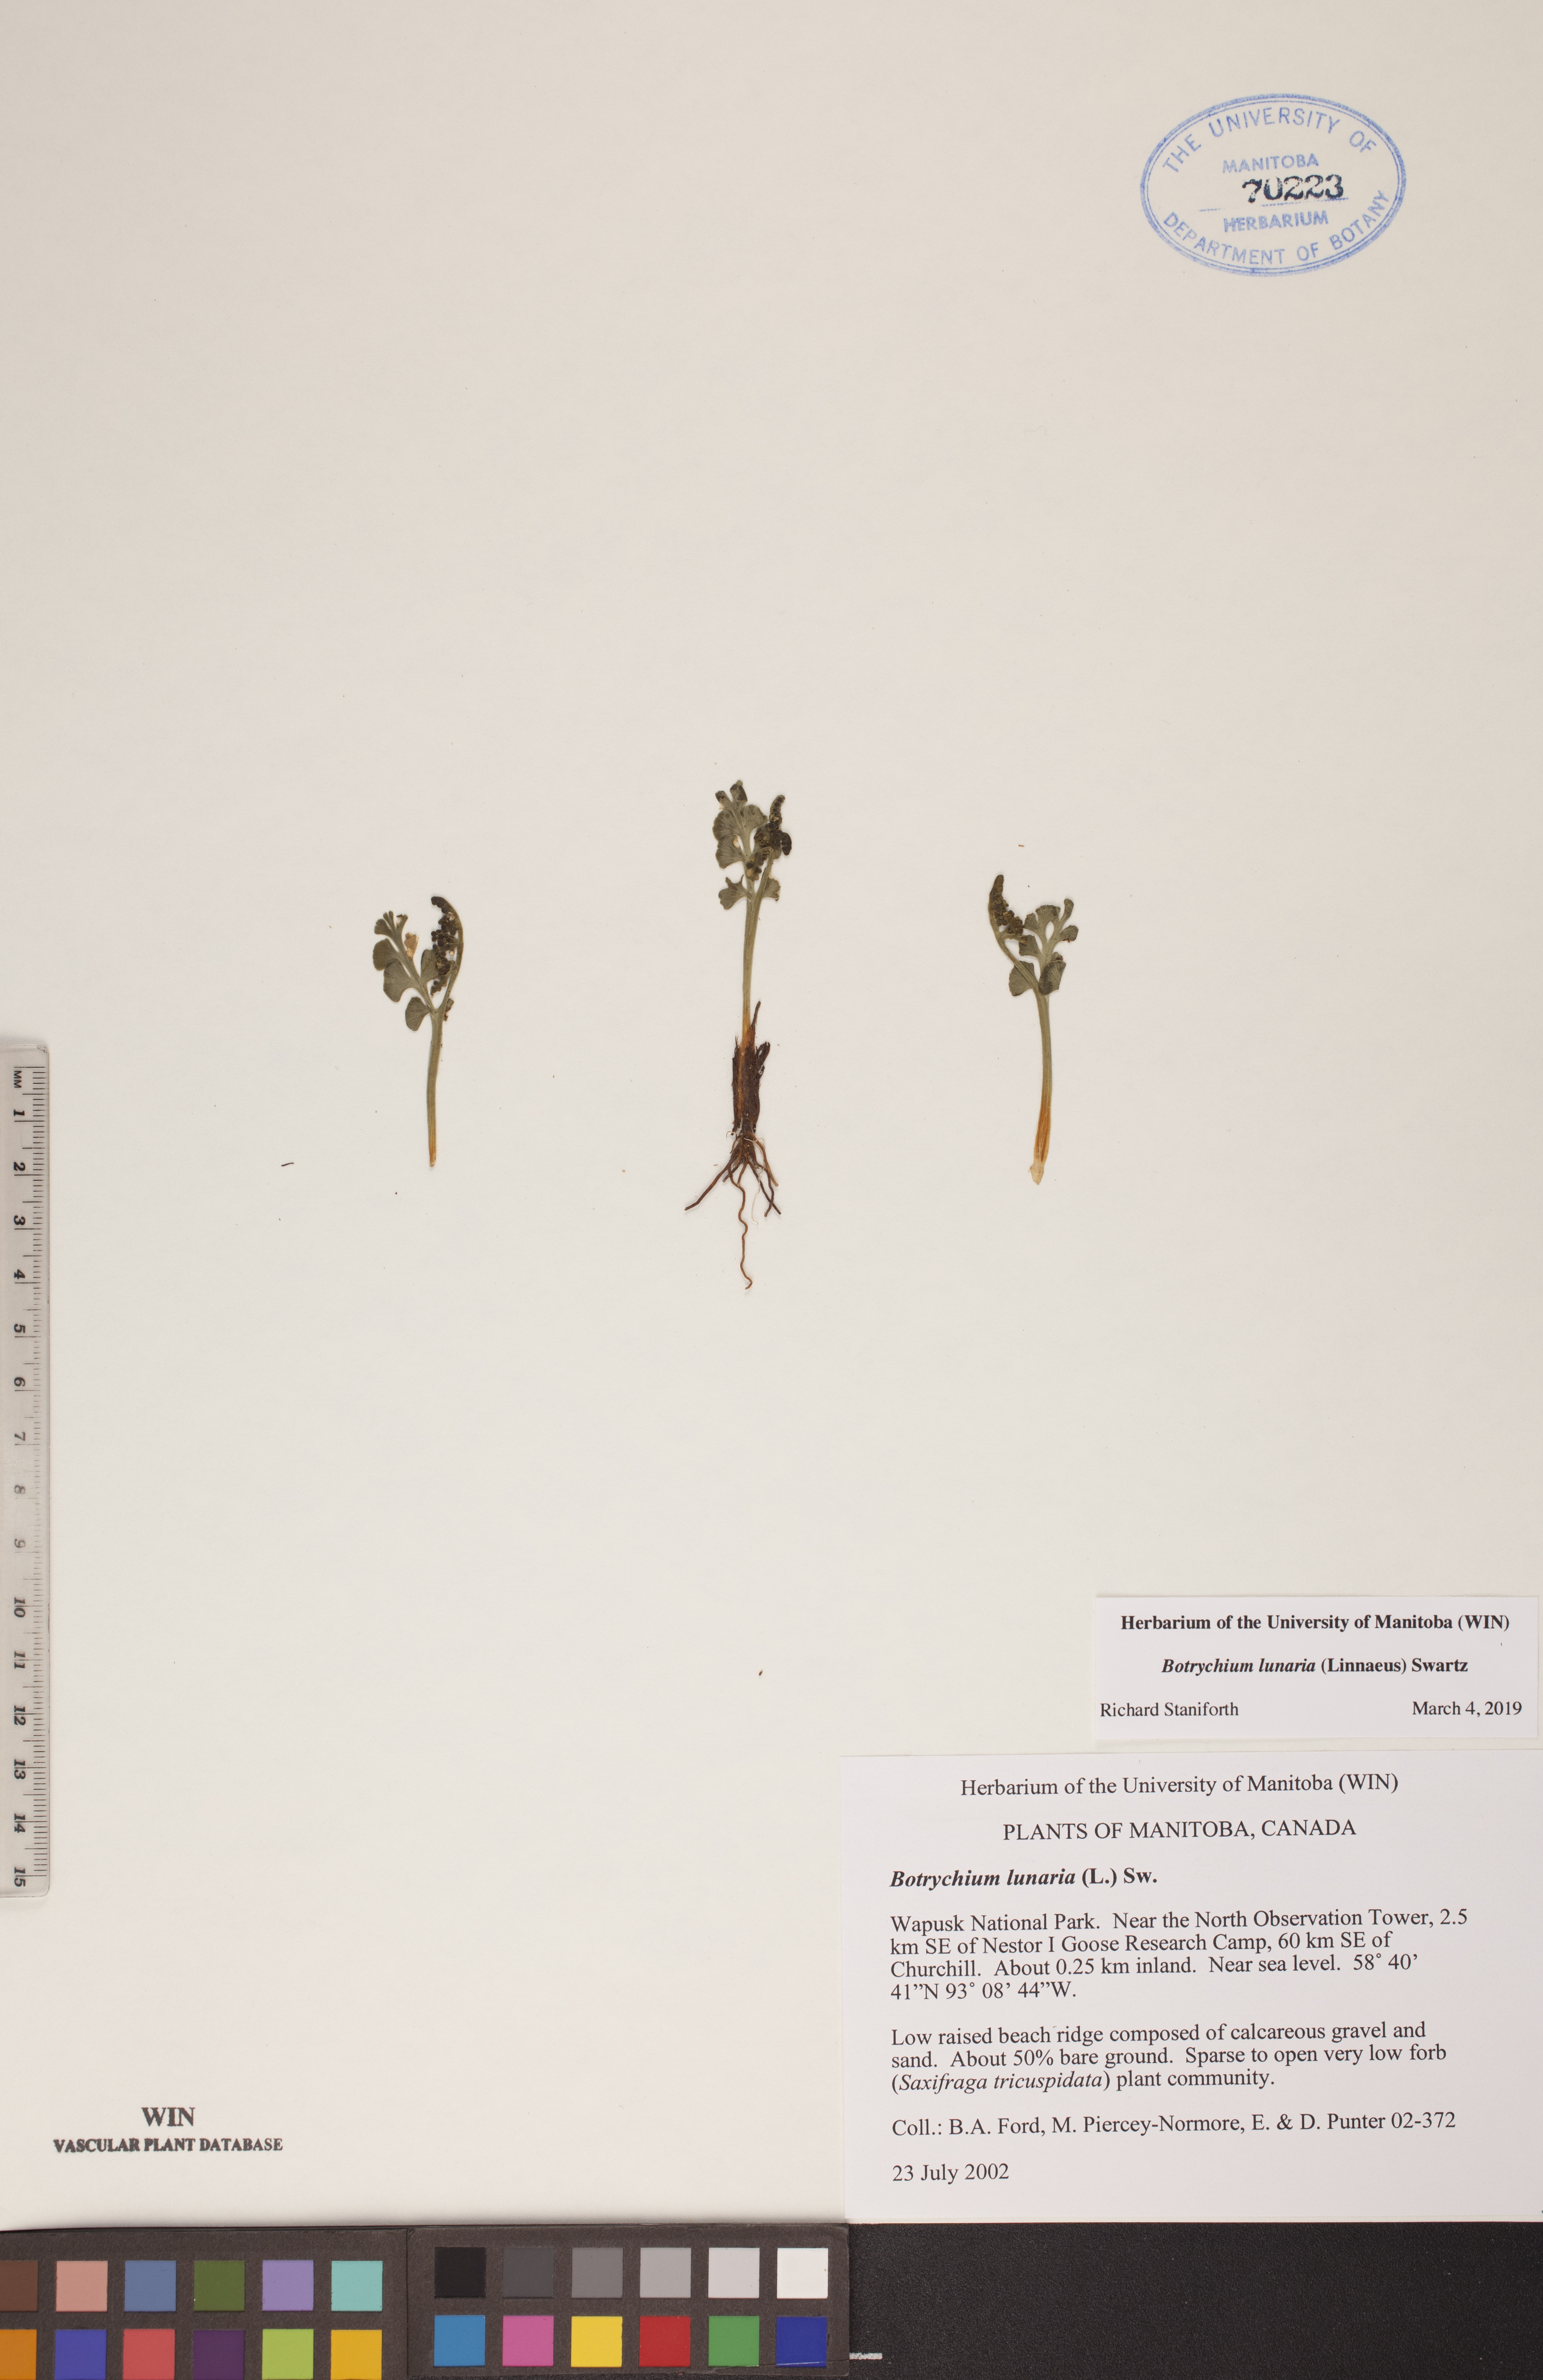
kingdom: Plantae
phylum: Tracheophyta
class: Polypodiopsida
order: Ophioglossales
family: Ophioglossaceae
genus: Botrychium
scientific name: Botrychium lunaria
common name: Moonwort
